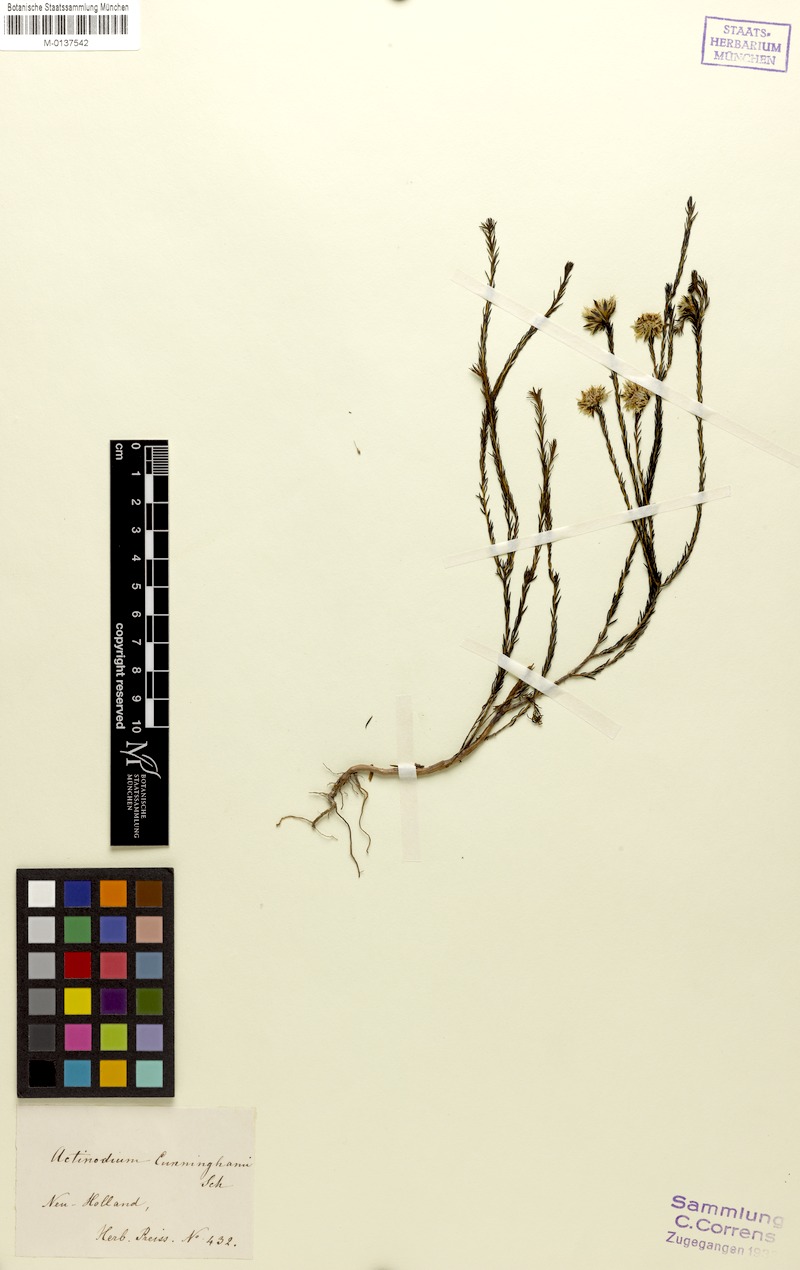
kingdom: Plantae
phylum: Tracheophyta
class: Magnoliopsida
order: Myrtales
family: Myrtaceae
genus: Actinodium
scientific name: Actinodium cunninghamii
